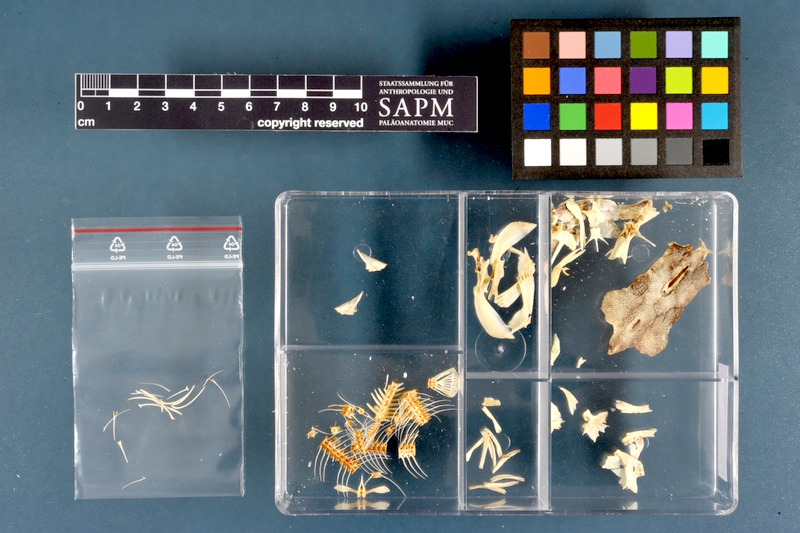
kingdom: Animalia
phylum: Chordata
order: Siluriformes
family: Clariidae
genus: Clarias
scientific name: Clarias gariepinus
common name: African catfish
